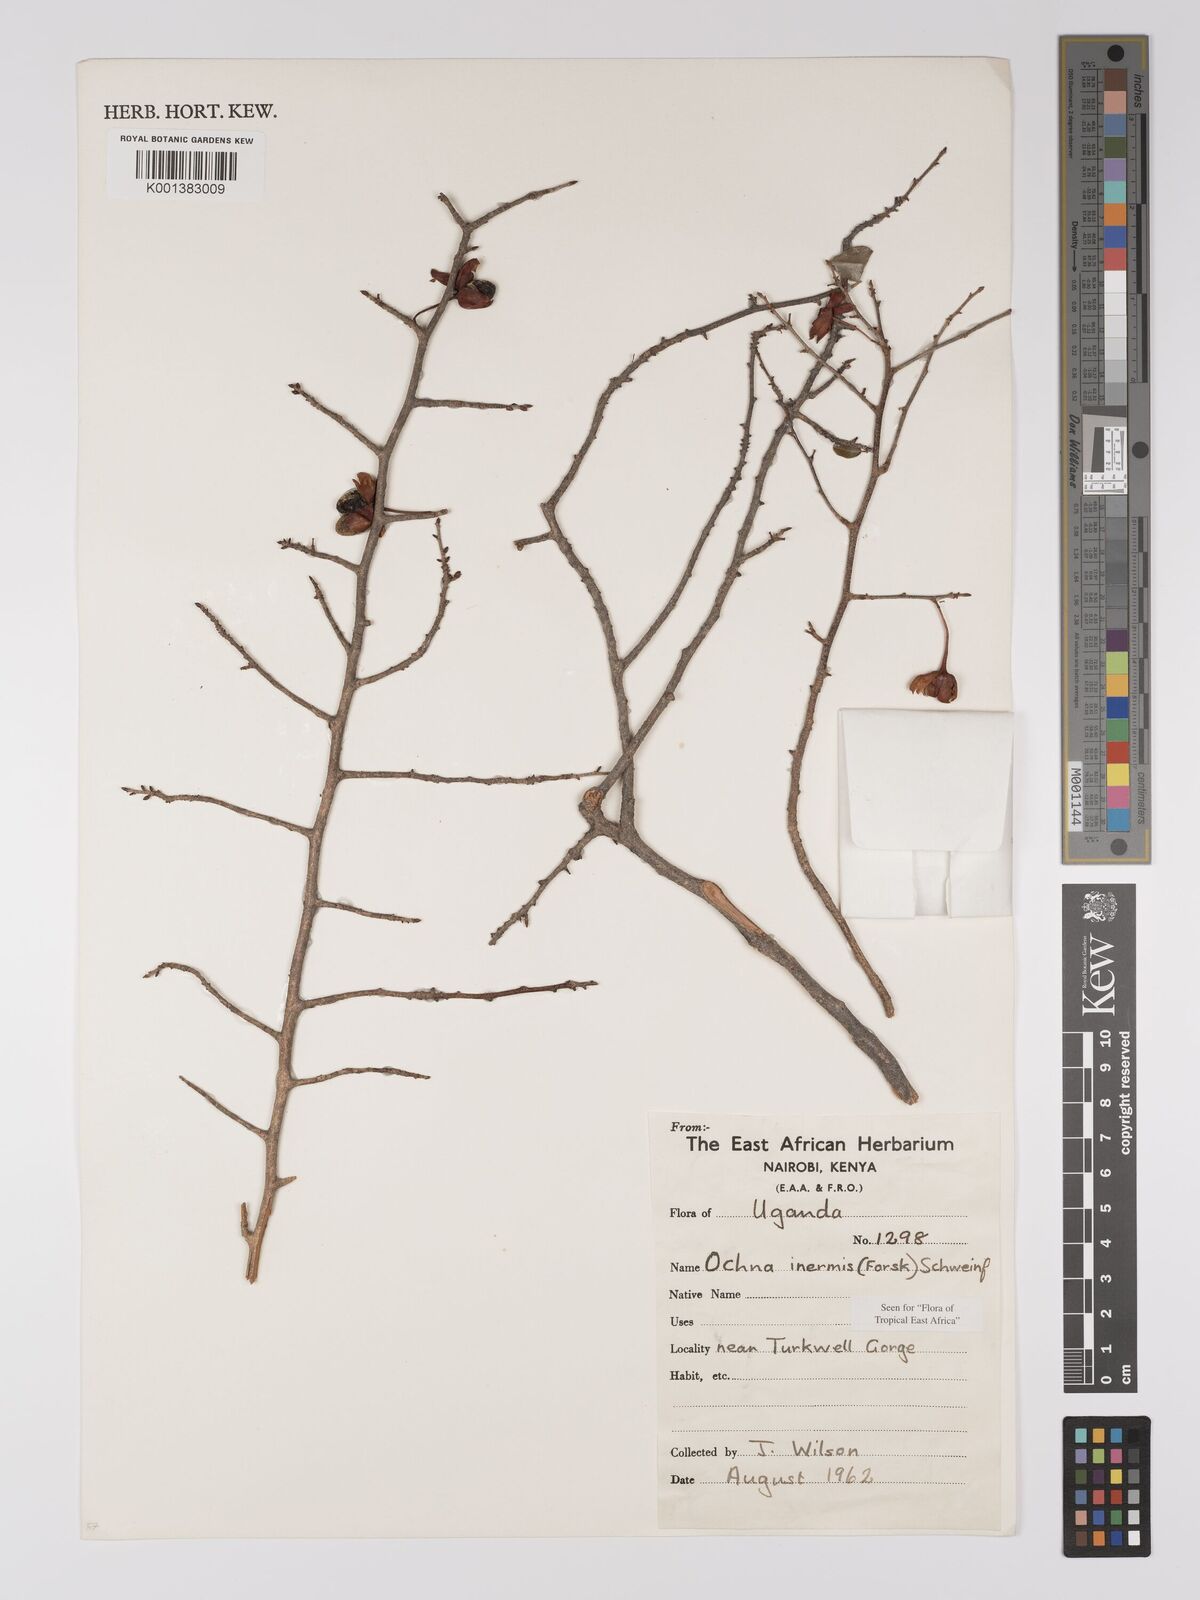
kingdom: Plantae
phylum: Tracheophyta
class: Magnoliopsida
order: Malpighiales
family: Ochnaceae
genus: Ochna
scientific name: Ochna inermis
